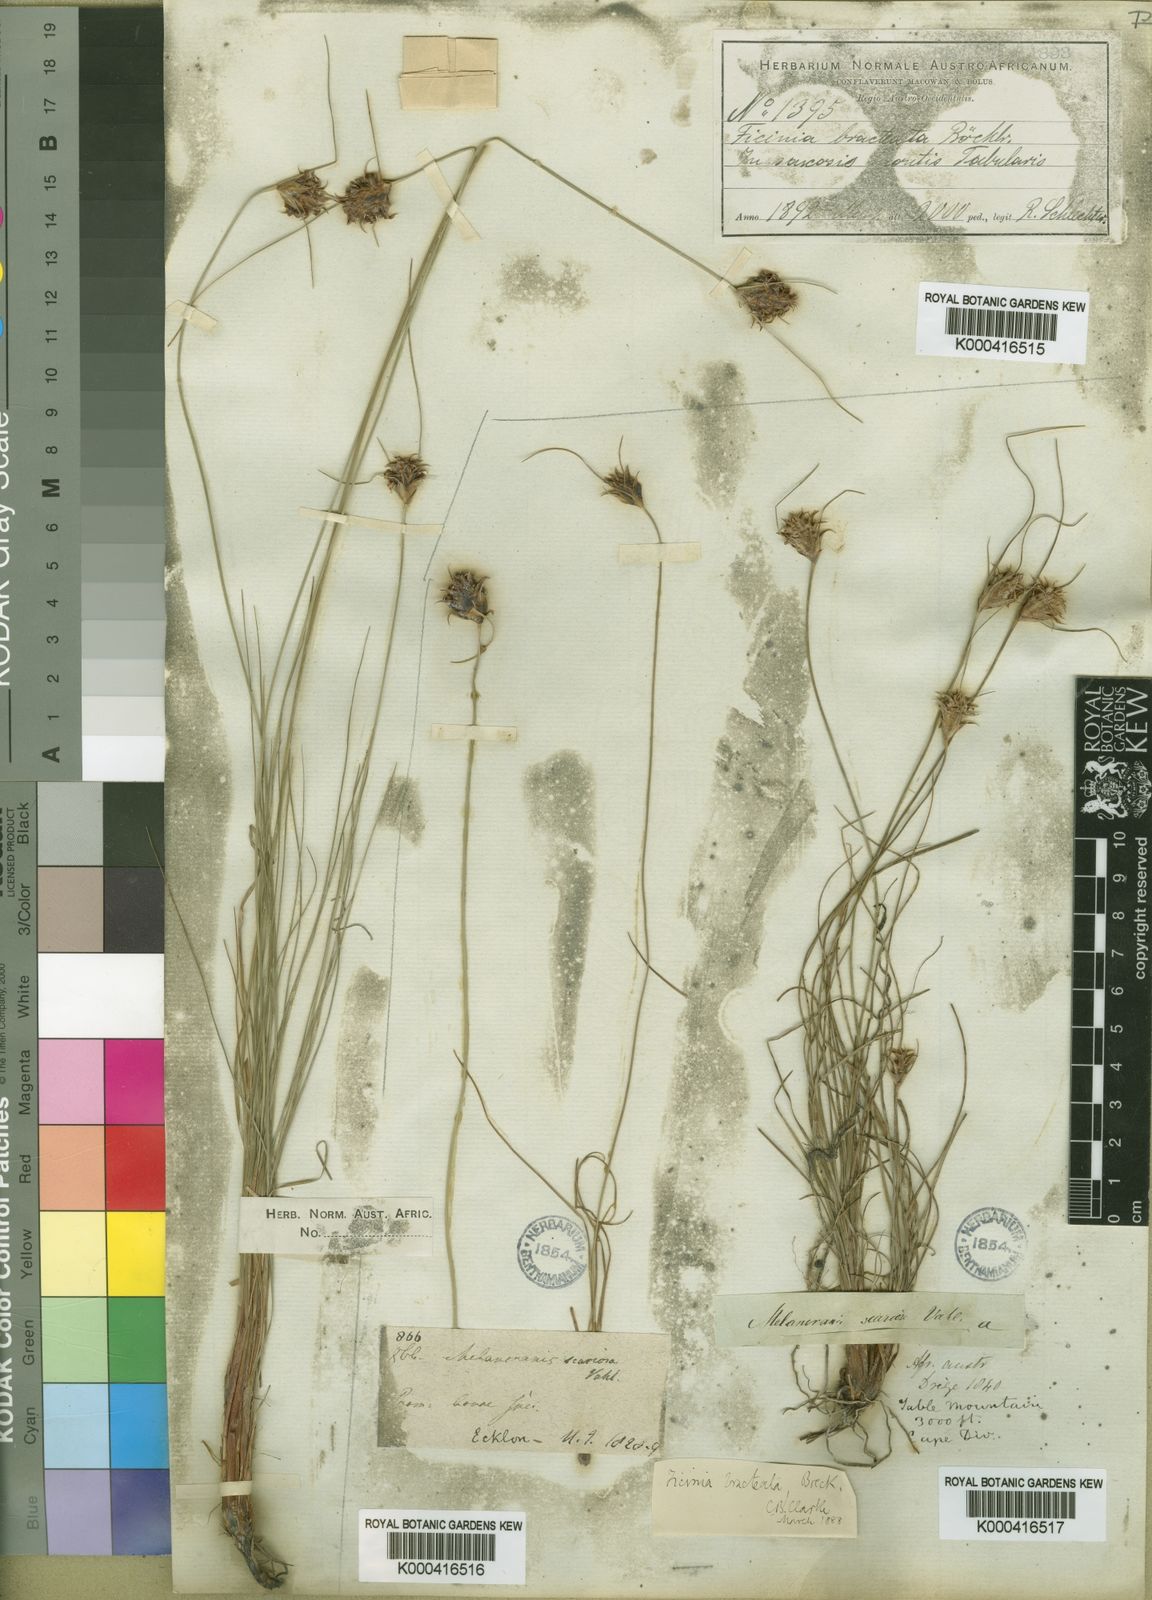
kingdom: Plantae
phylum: Tracheophyta
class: Liliopsida
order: Poales
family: Cyperaceae
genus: Ficinia
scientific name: Ficinia nigrescens
